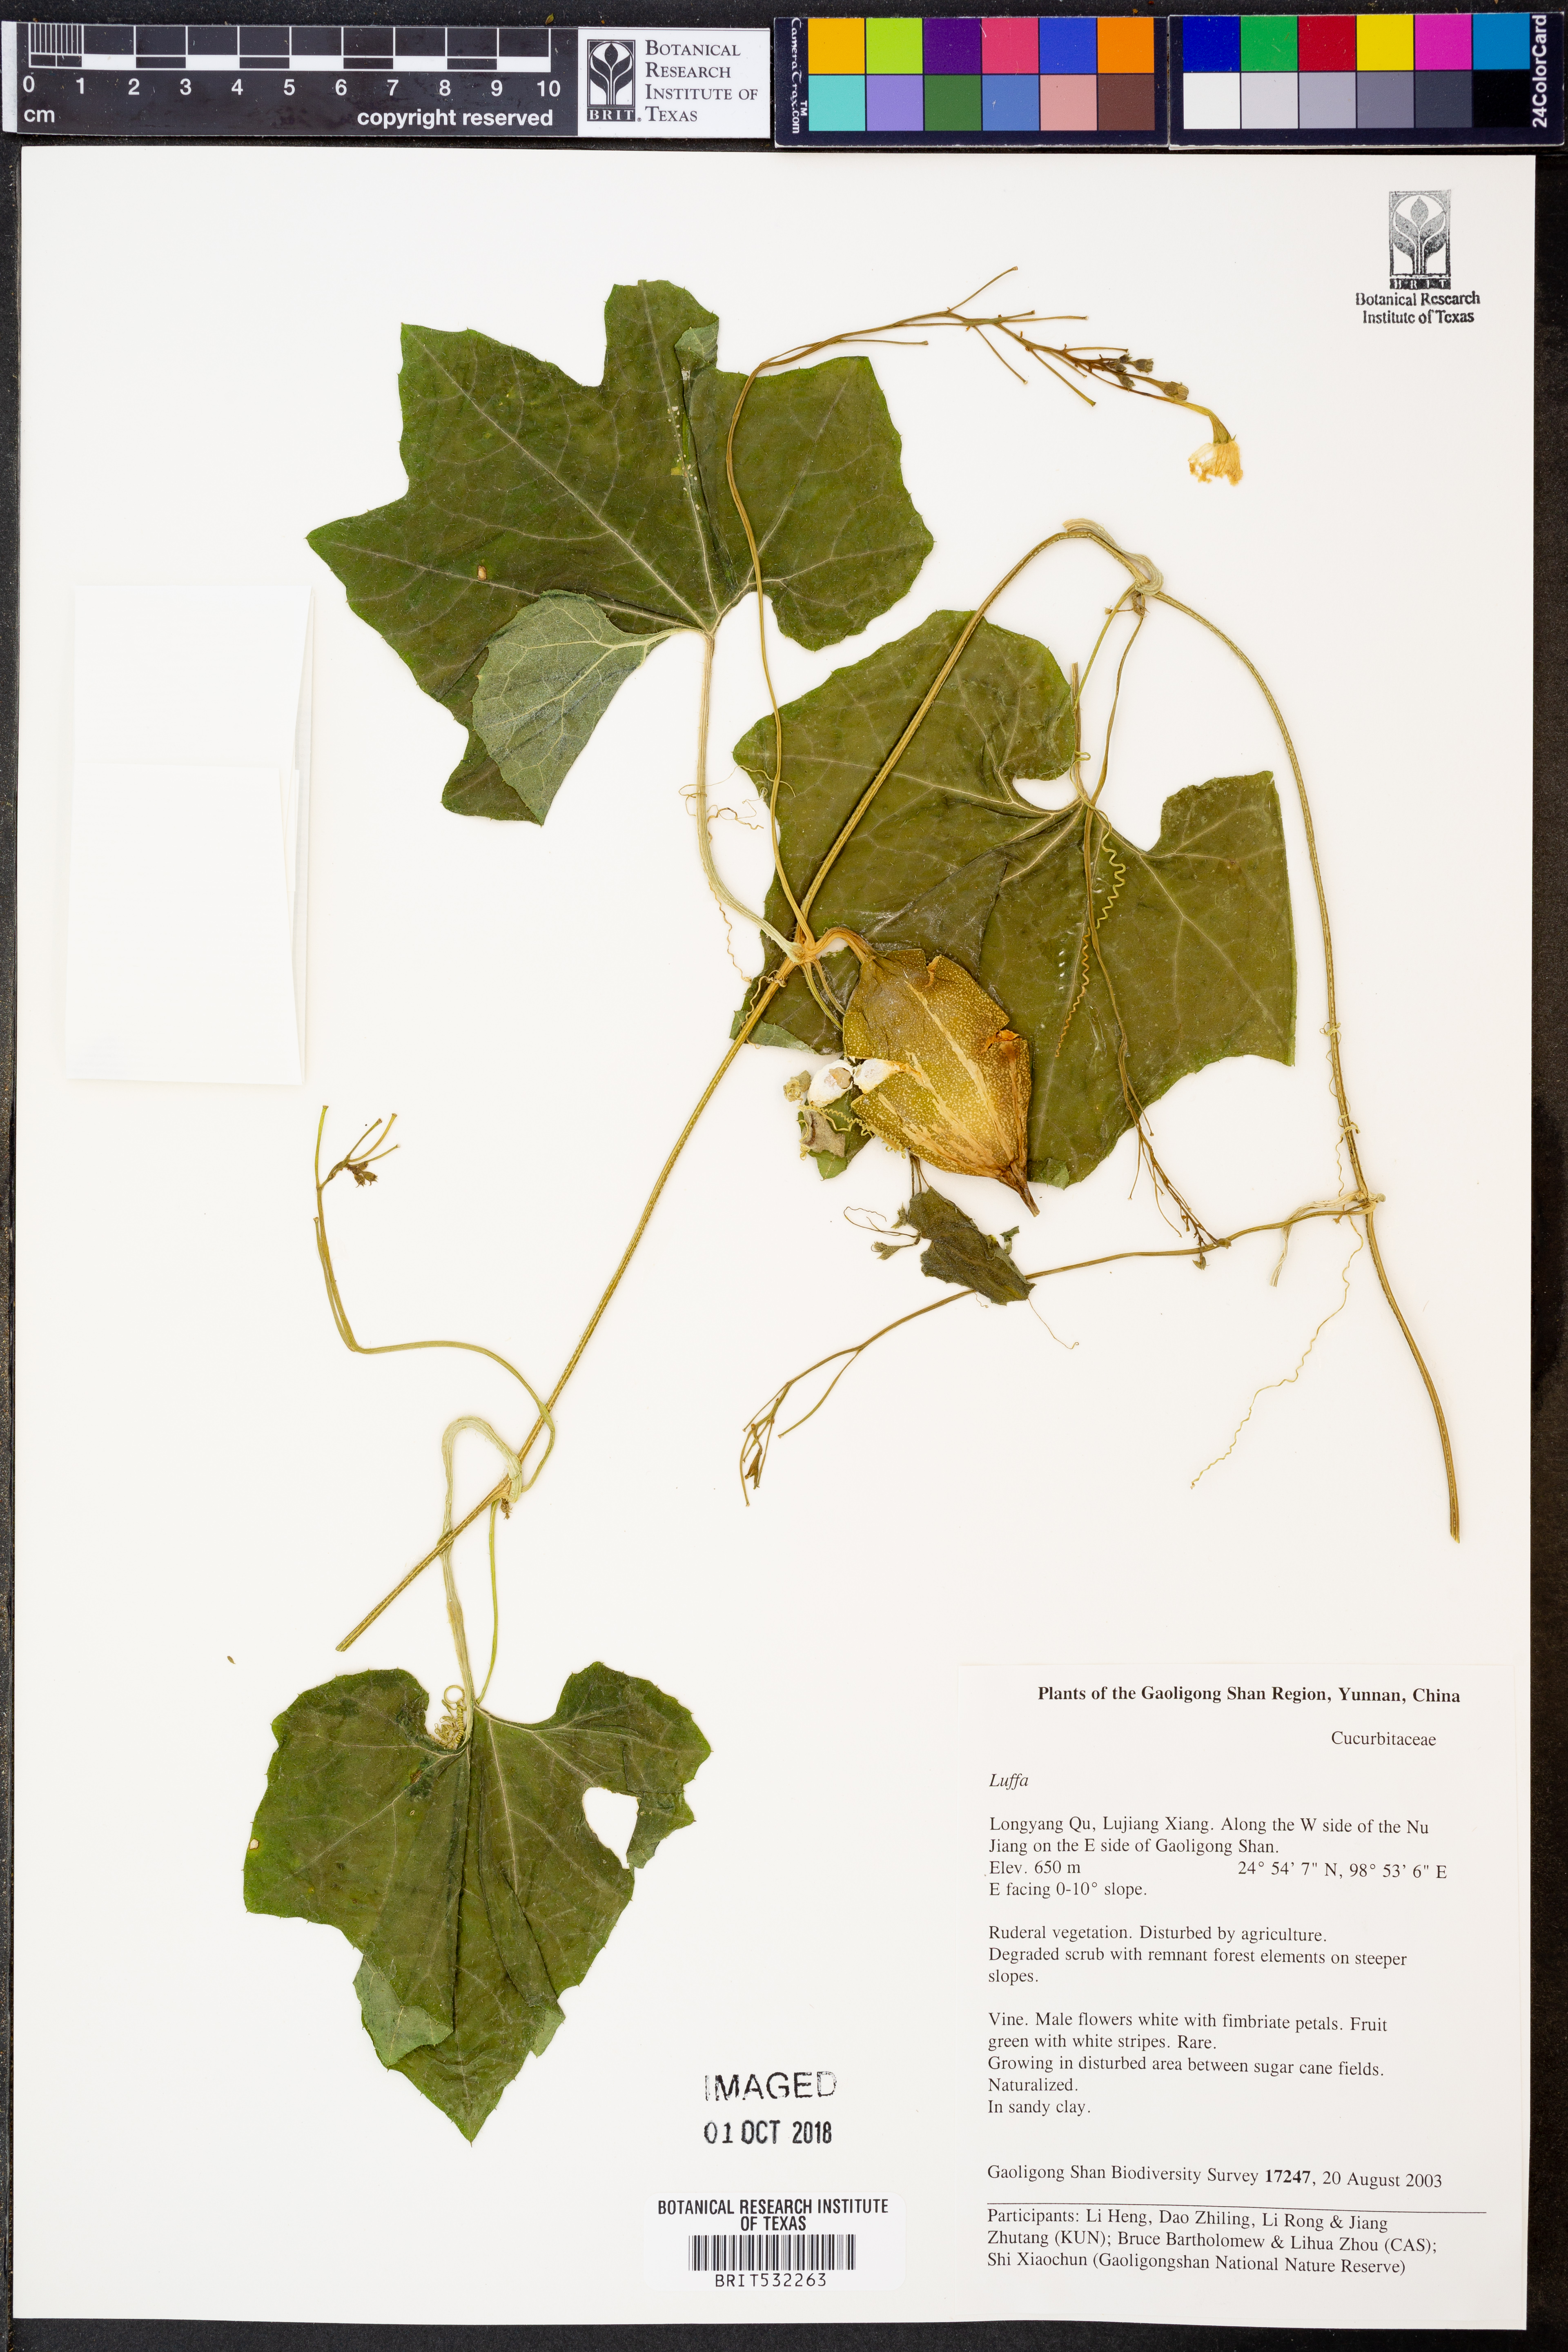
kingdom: Plantae
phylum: Tracheophyta
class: Magnoliopsida
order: Cucurbitales
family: Cucurbitaceae
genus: Luffa
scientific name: Luffa
